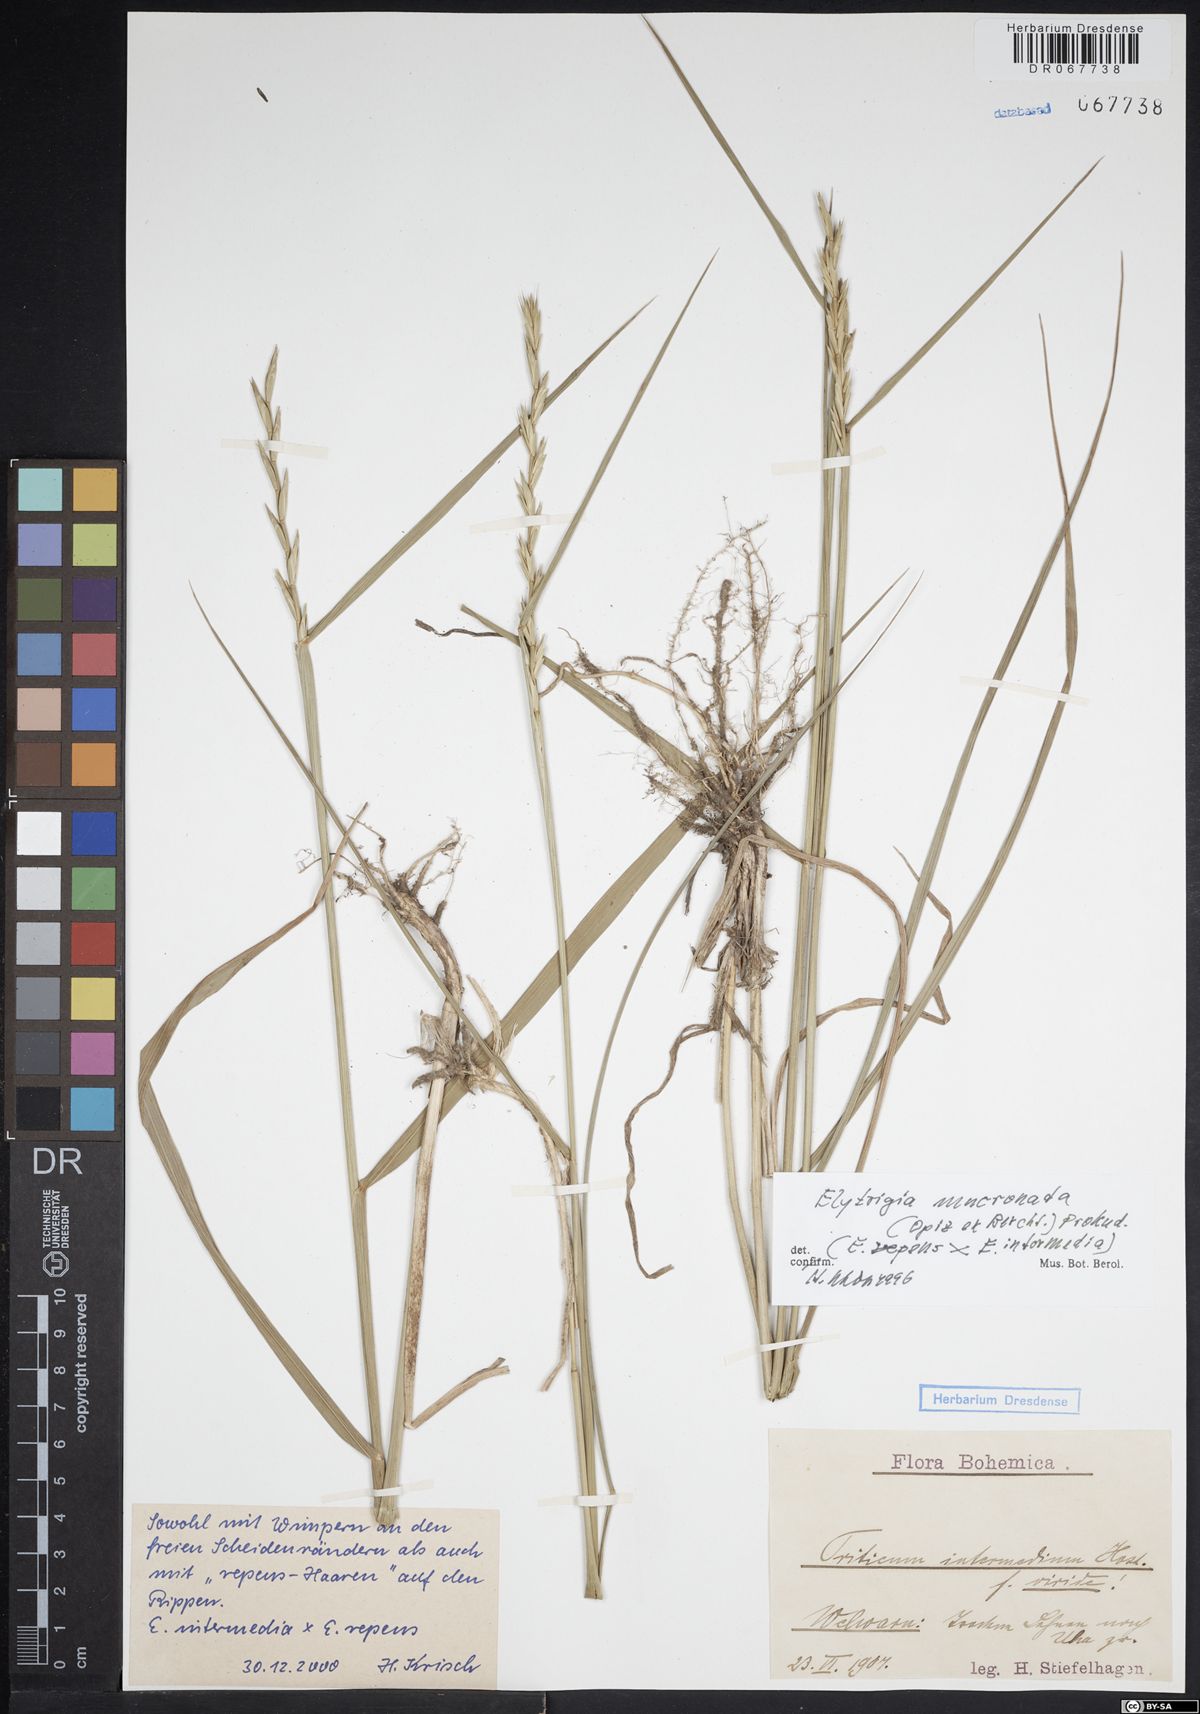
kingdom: Plantae
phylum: Tracheophyta
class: Liliopsida
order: Poales
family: Poaceae
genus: Thinoelymus
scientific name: Thinoelymus mucronatus
